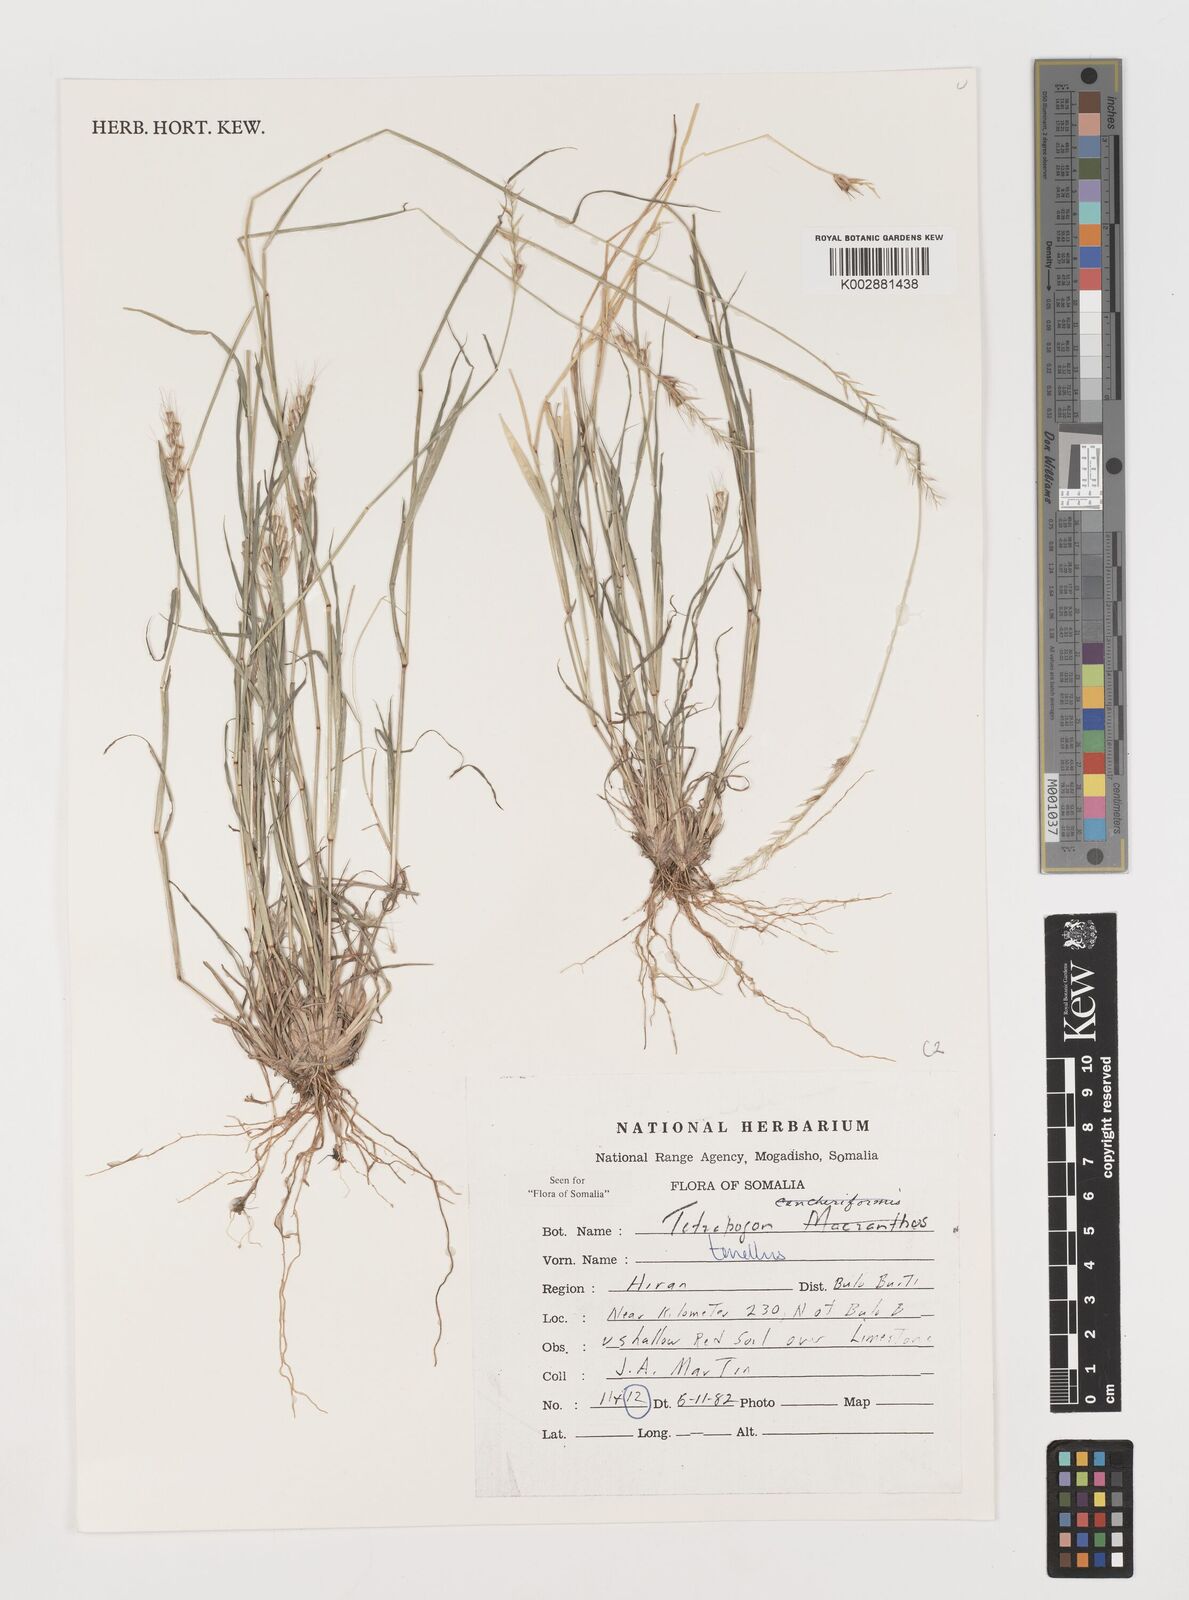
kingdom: Plantae
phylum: Tracheophyta
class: Liliopsida
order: Poales
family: Poaceae
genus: Tetrapogon
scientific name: Tetrapogon tenellus
